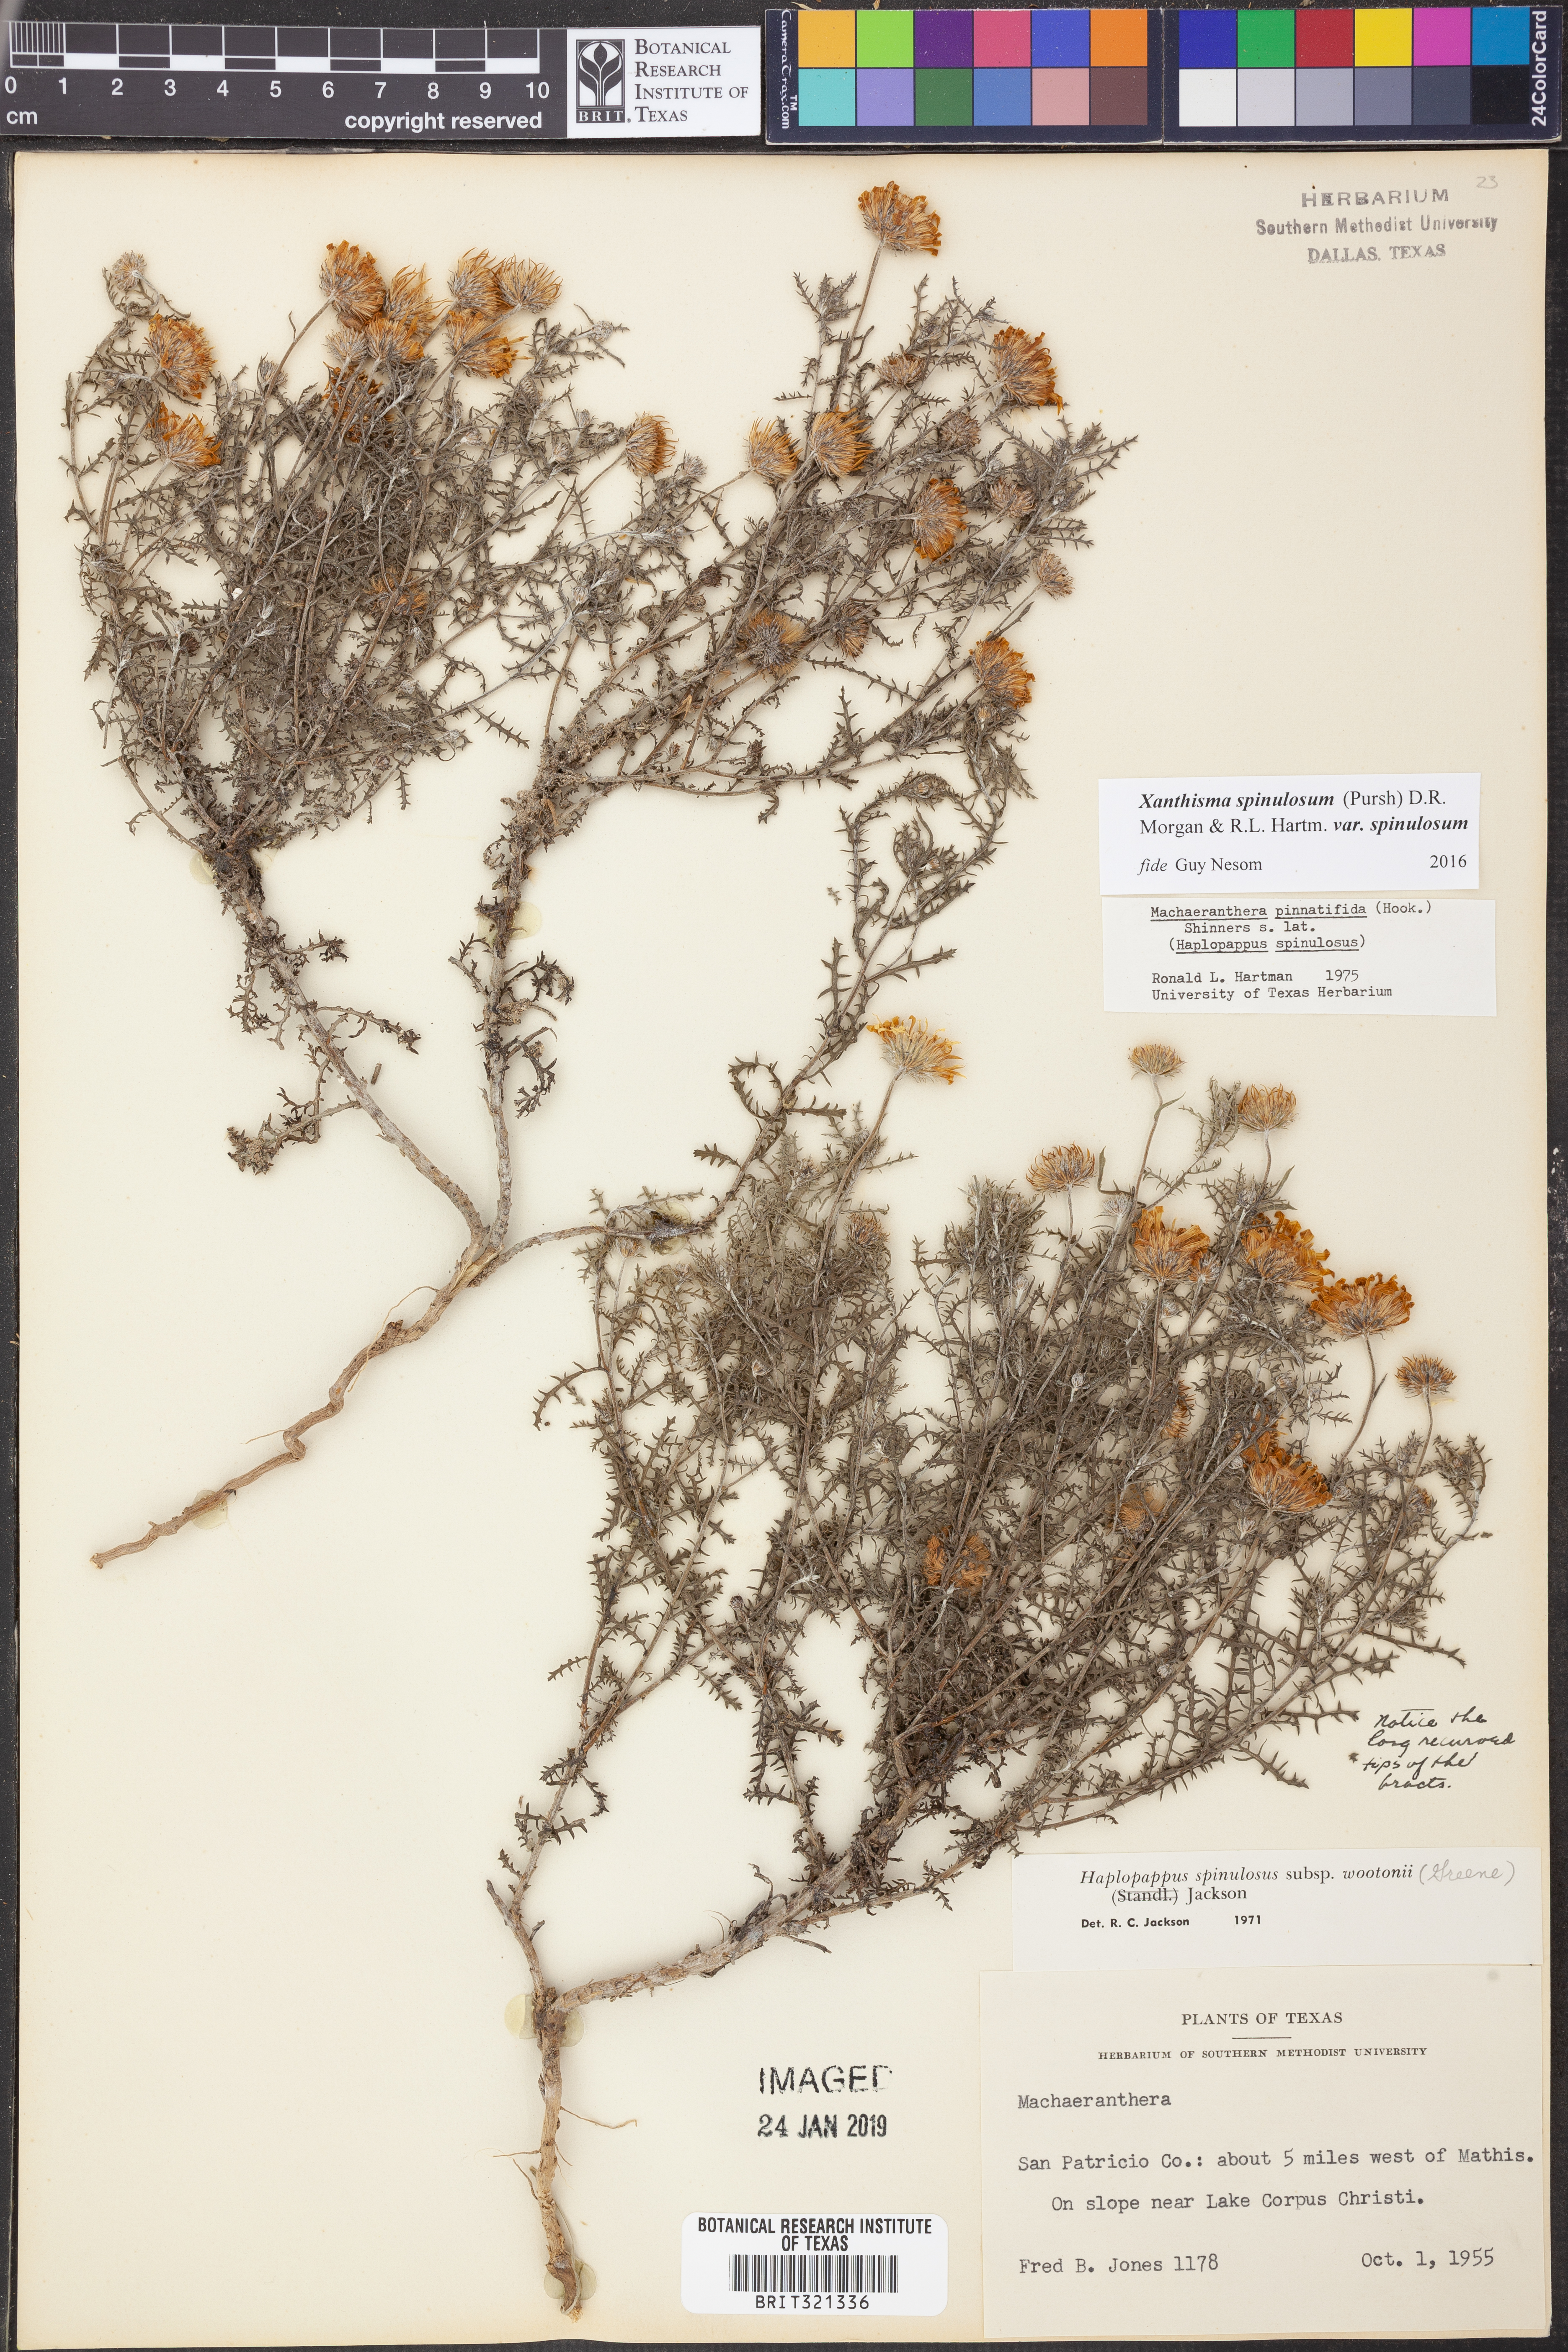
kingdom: Plantae
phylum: Tracheophyta
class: Magnoliopsida
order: Asterales
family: Asteraceae
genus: Xanthisma
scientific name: Xanthisma spinulosum
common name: Spiny goldenweed
